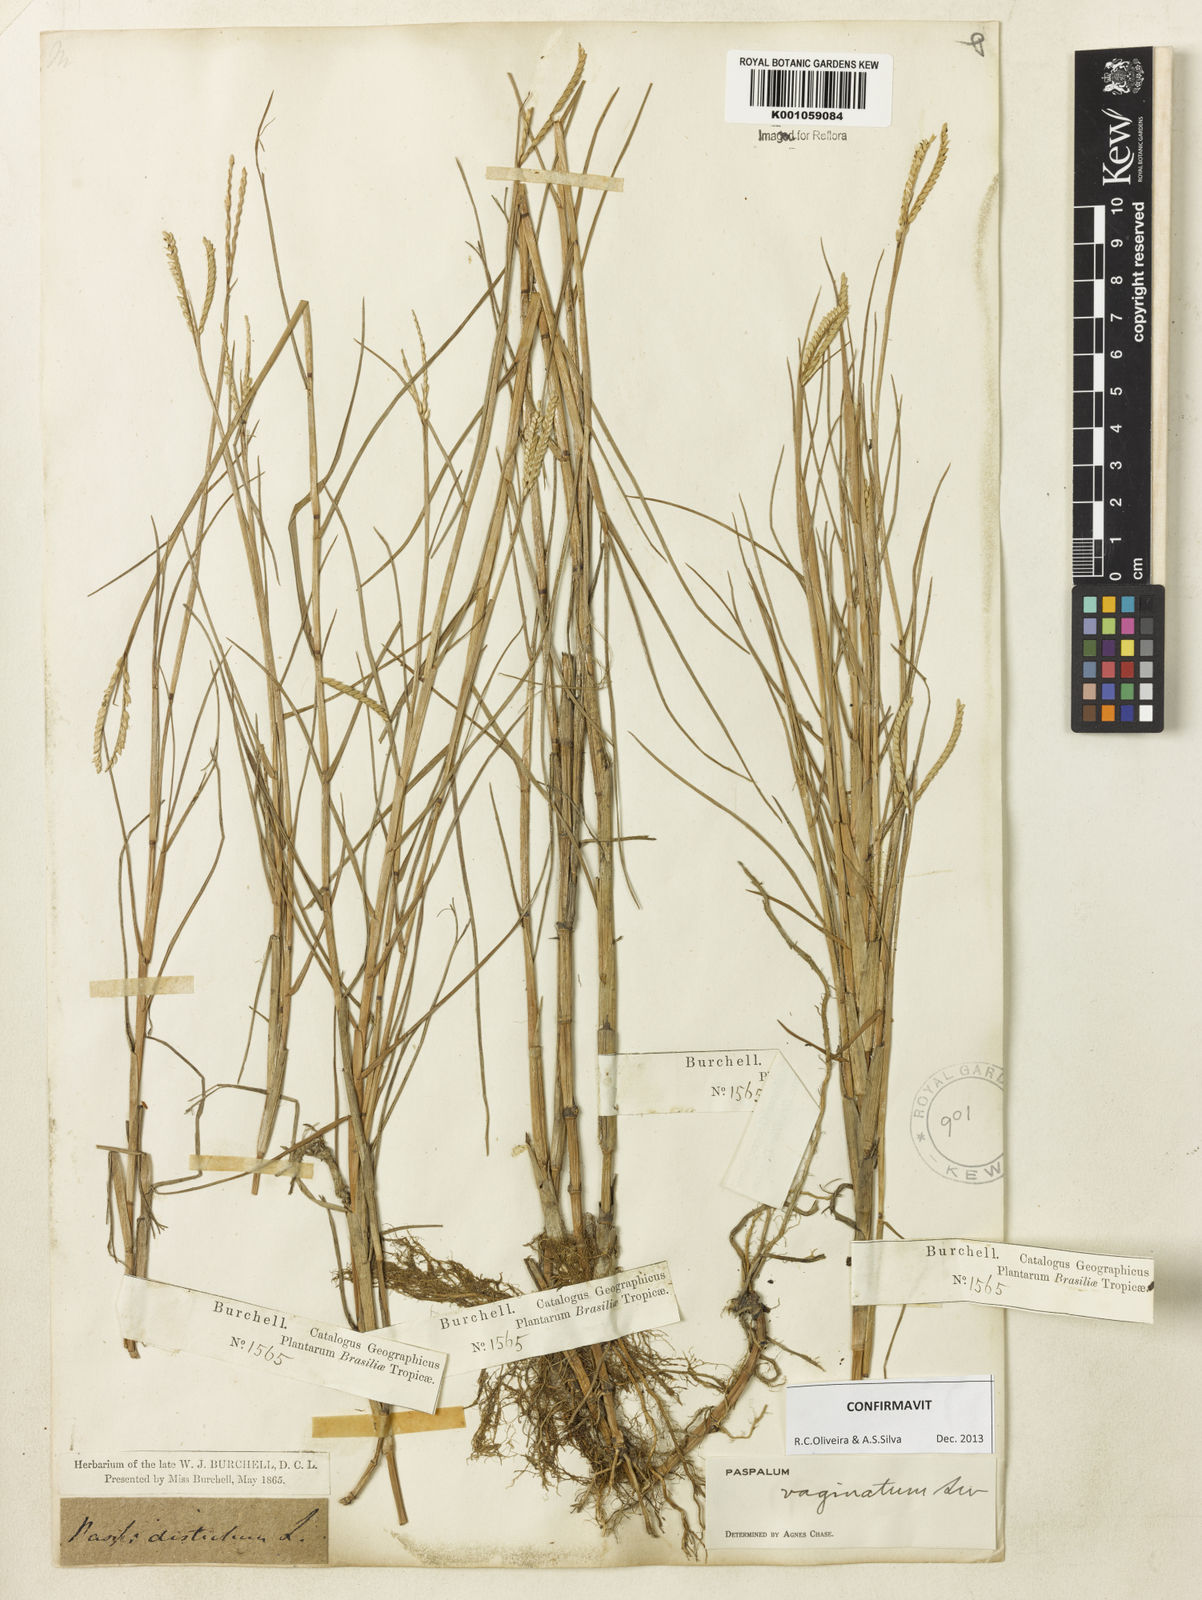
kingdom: Plantae
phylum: Tracheophyta
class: Liliopsida
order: Poales
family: Poaceae
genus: Paspalum
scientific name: Paspalum vaginatum
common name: Seashore paspalum
